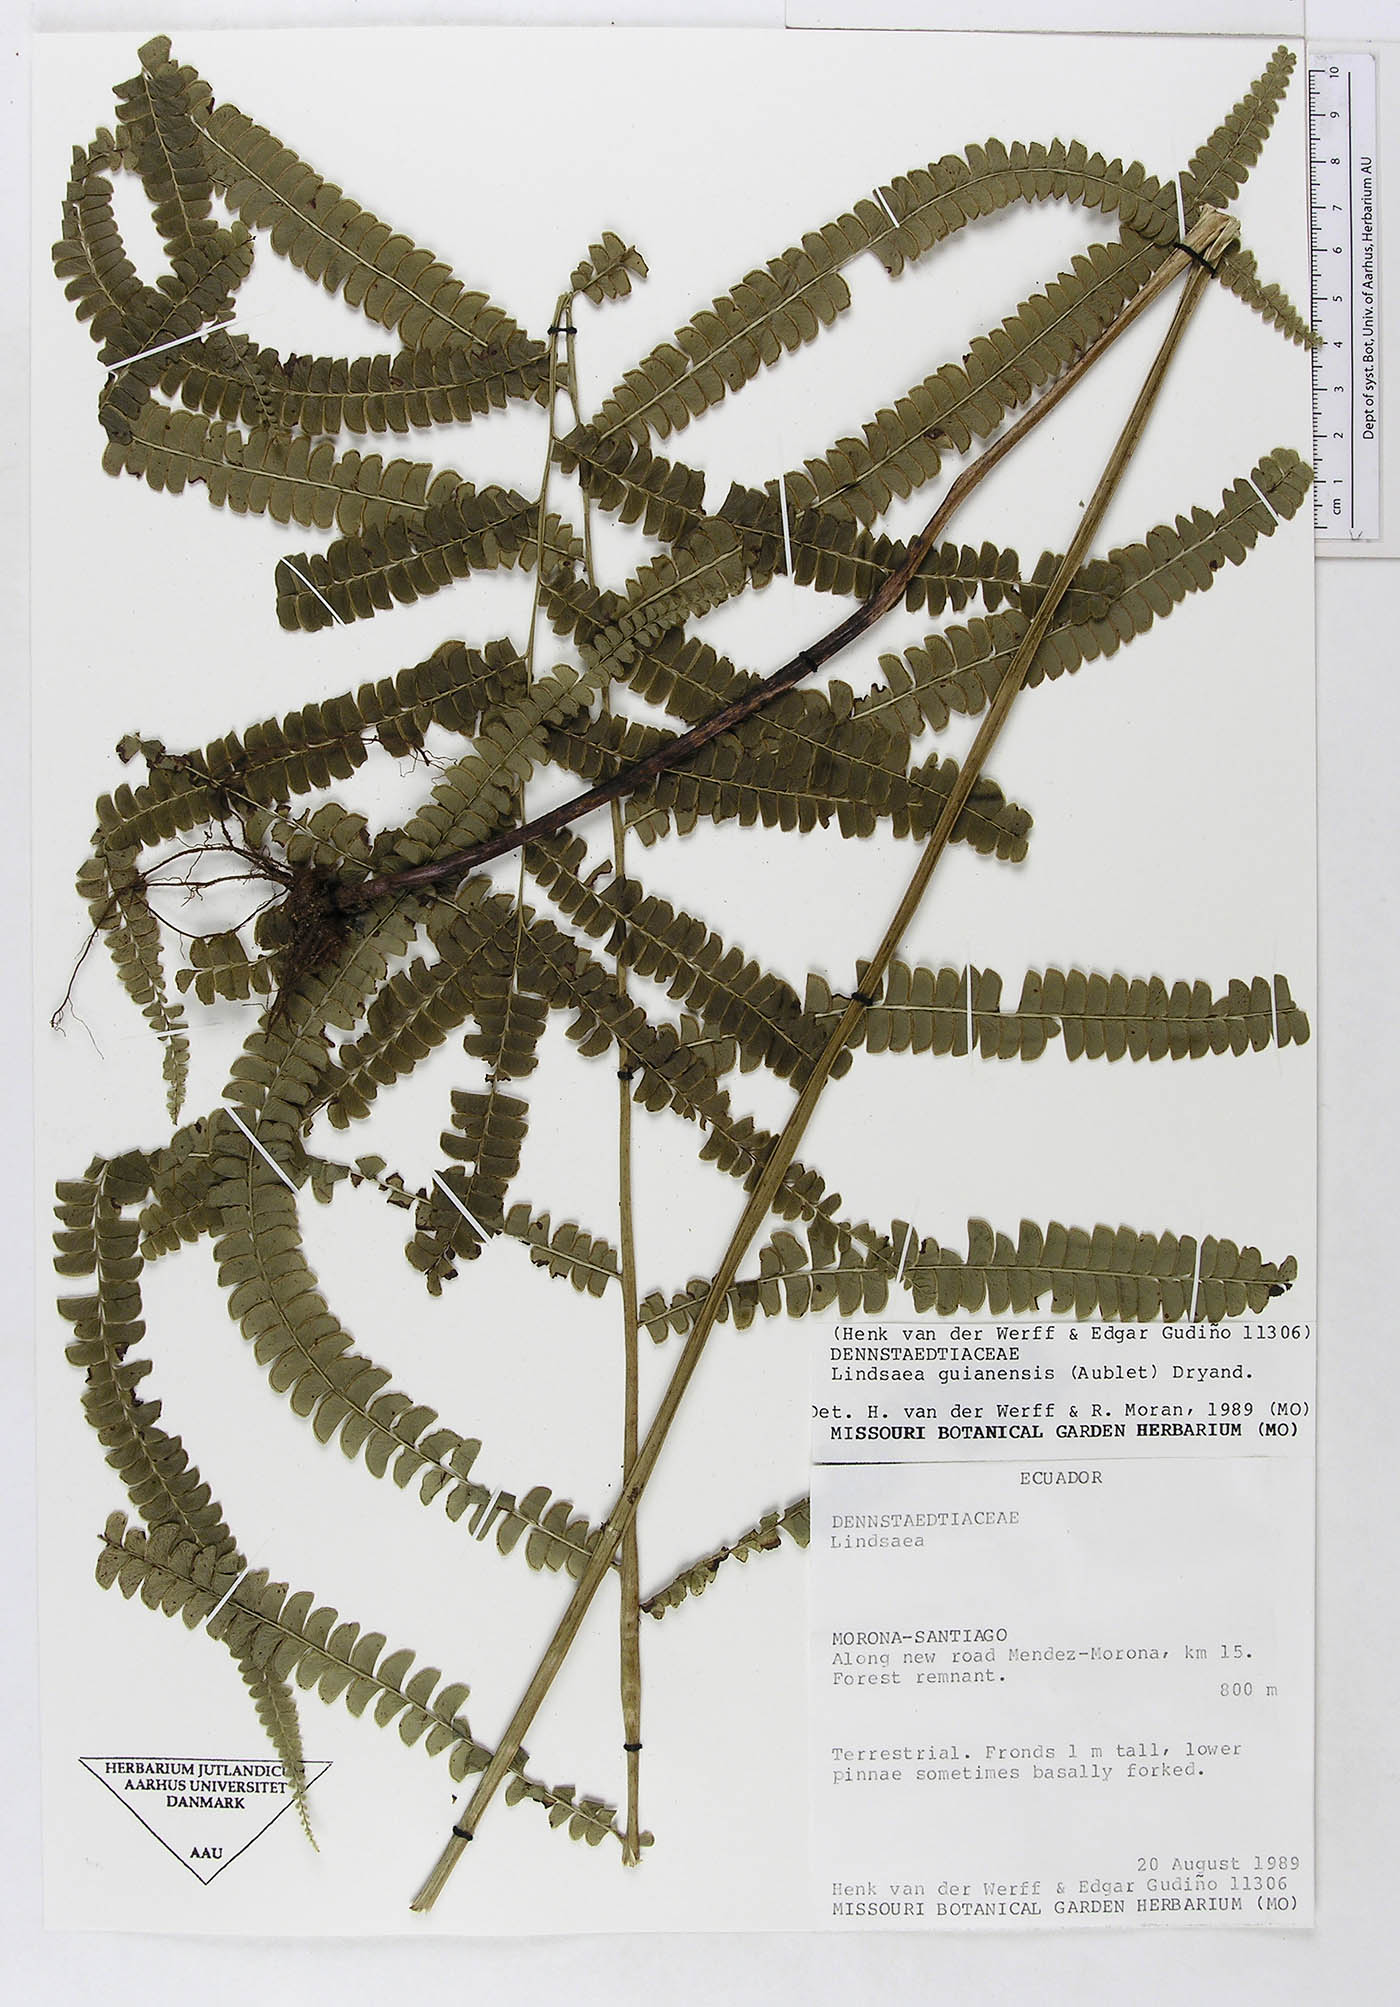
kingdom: Plantae
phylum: Tracheophyta
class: Polypodiopsida
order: Polypodiales
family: Lindsaeaceae
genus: Lindsaea
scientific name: Lindsaea guianensis
